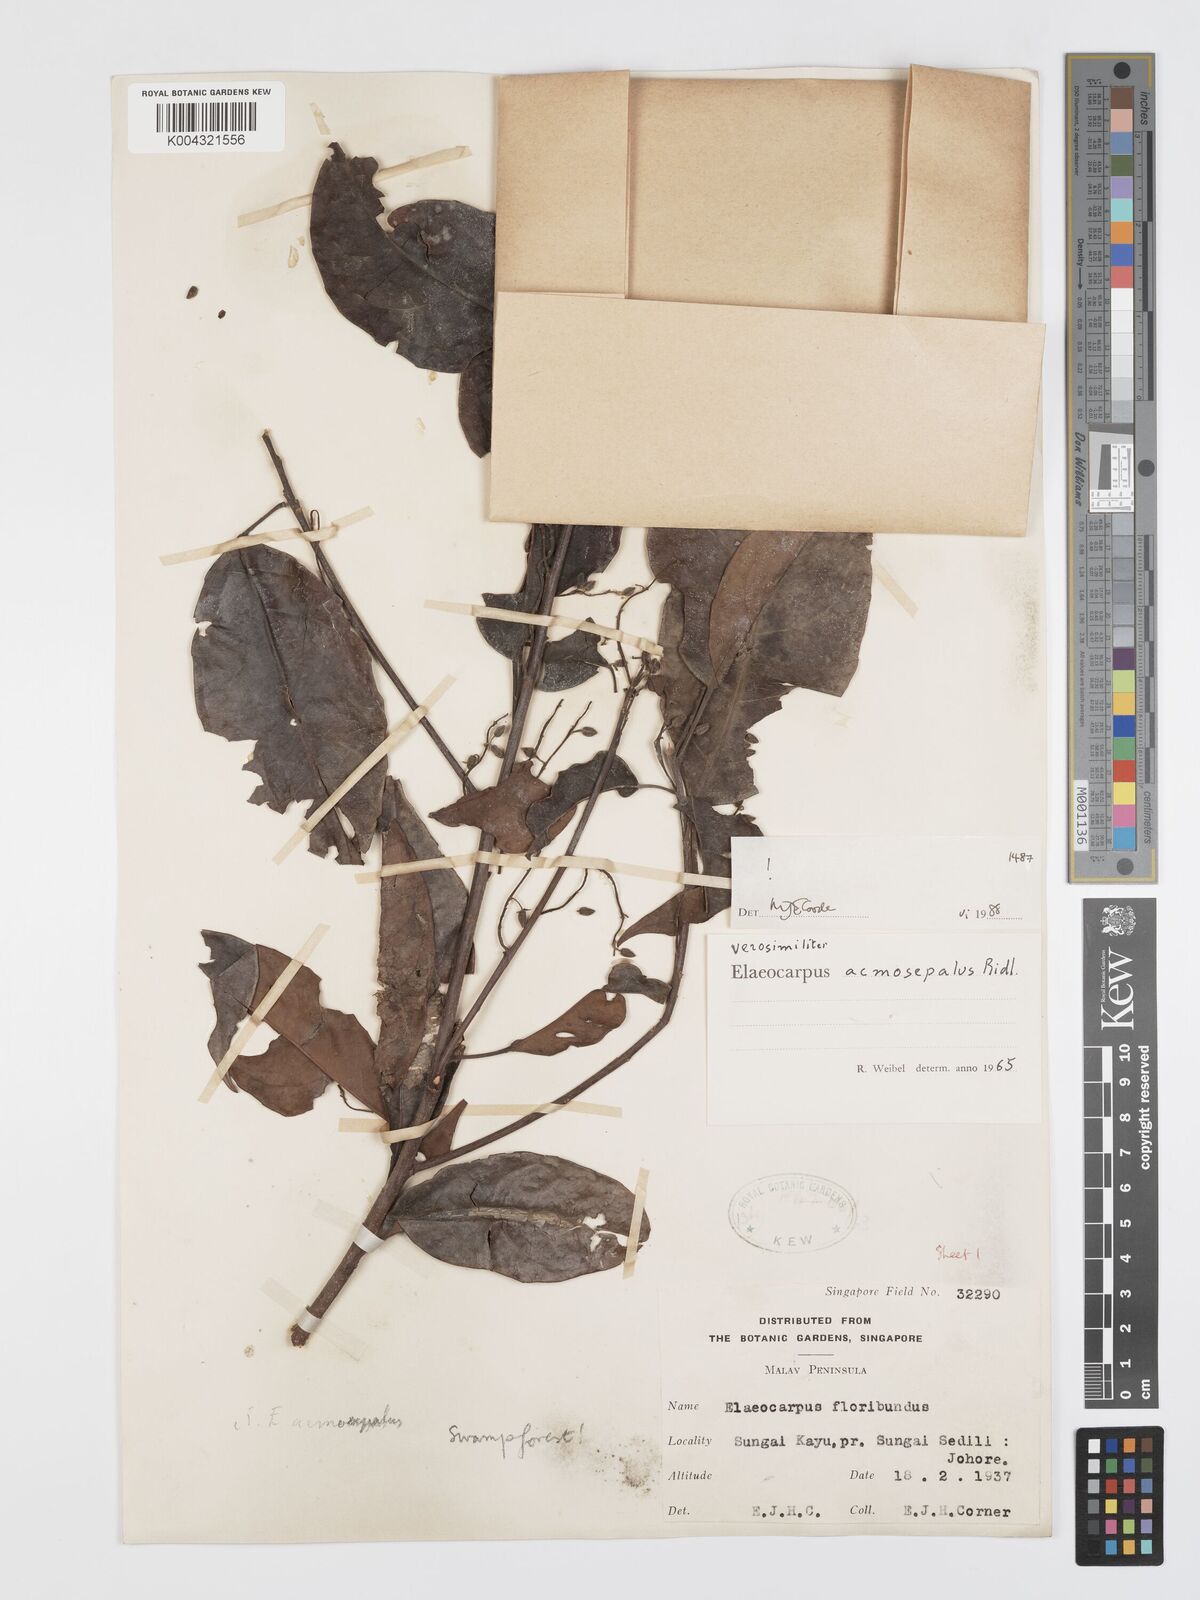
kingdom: Plantae
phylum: Tracheophyta
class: Magnoliopsida
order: Oxalidales
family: Elaeocarpaceae
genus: Elaeocarpus
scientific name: Elaeocarpus acmosepalus
